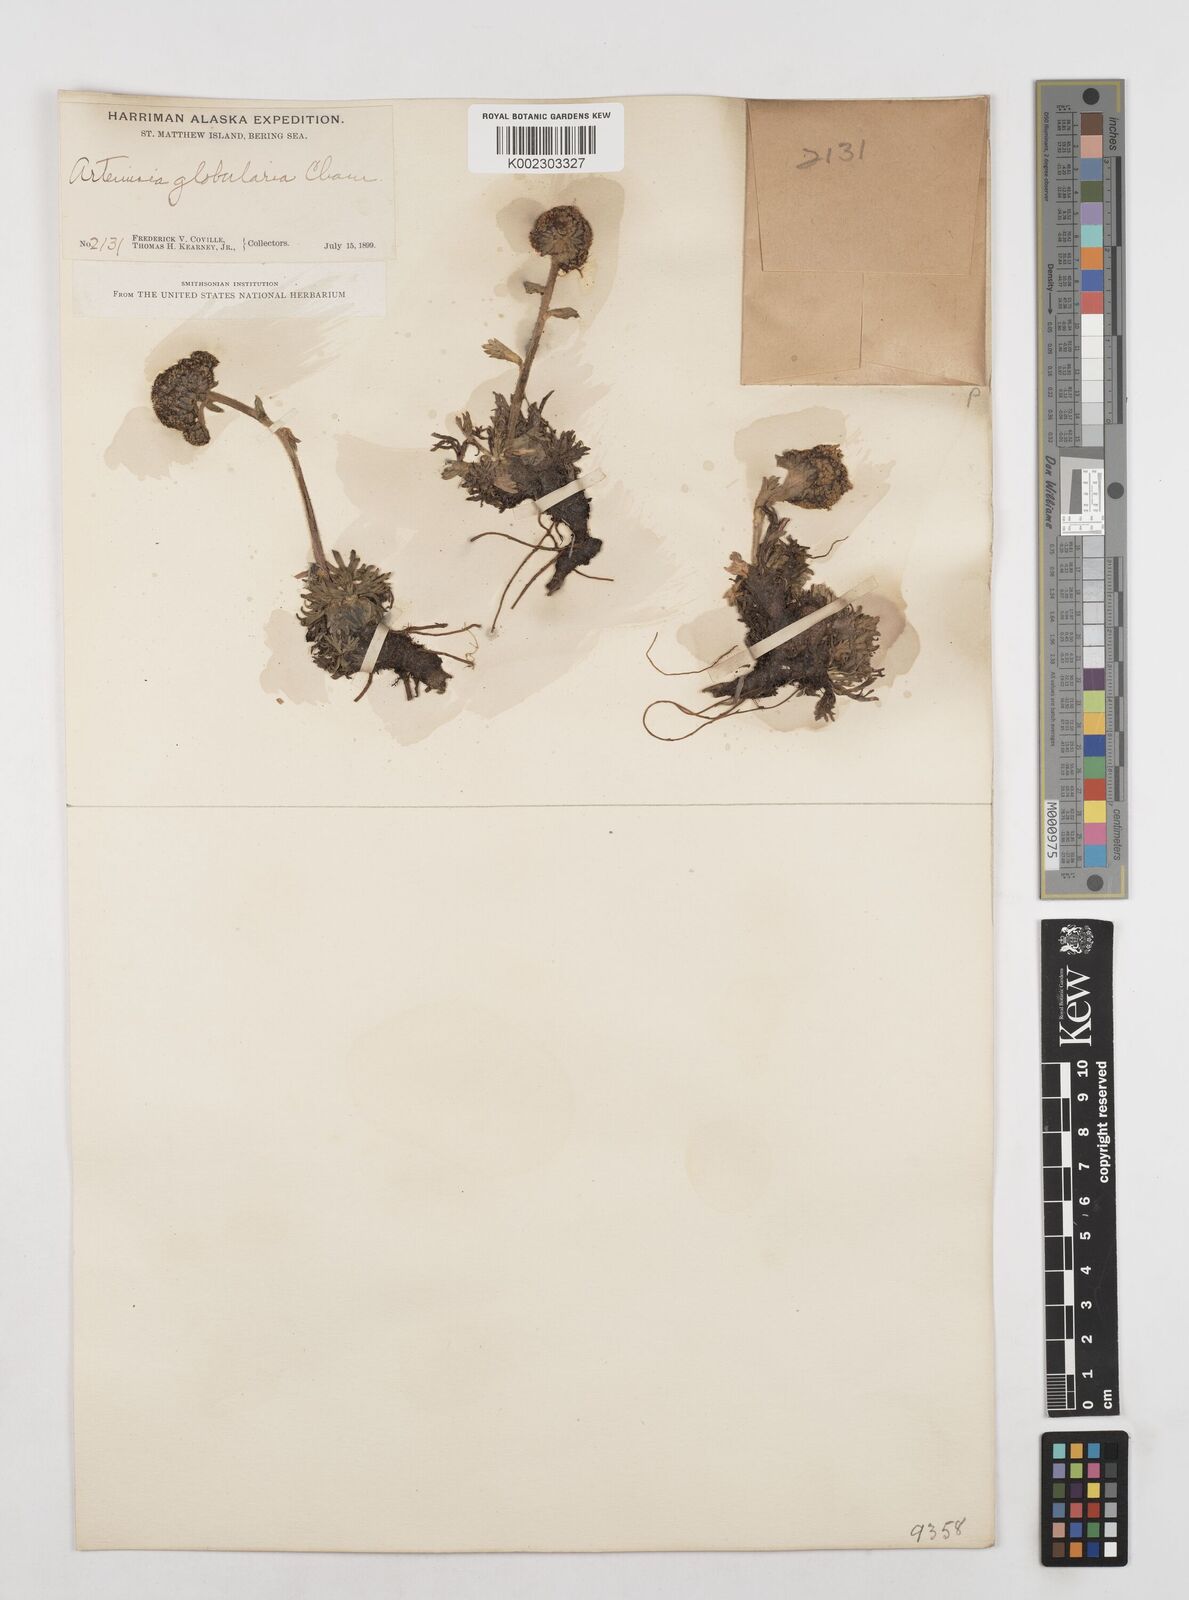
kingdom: Plantae
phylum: Tracheophyta
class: Magnoliopsida
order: Asterales
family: Asteraceae
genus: Artemisia
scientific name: Artemisia globularia
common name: Purple wormwood
